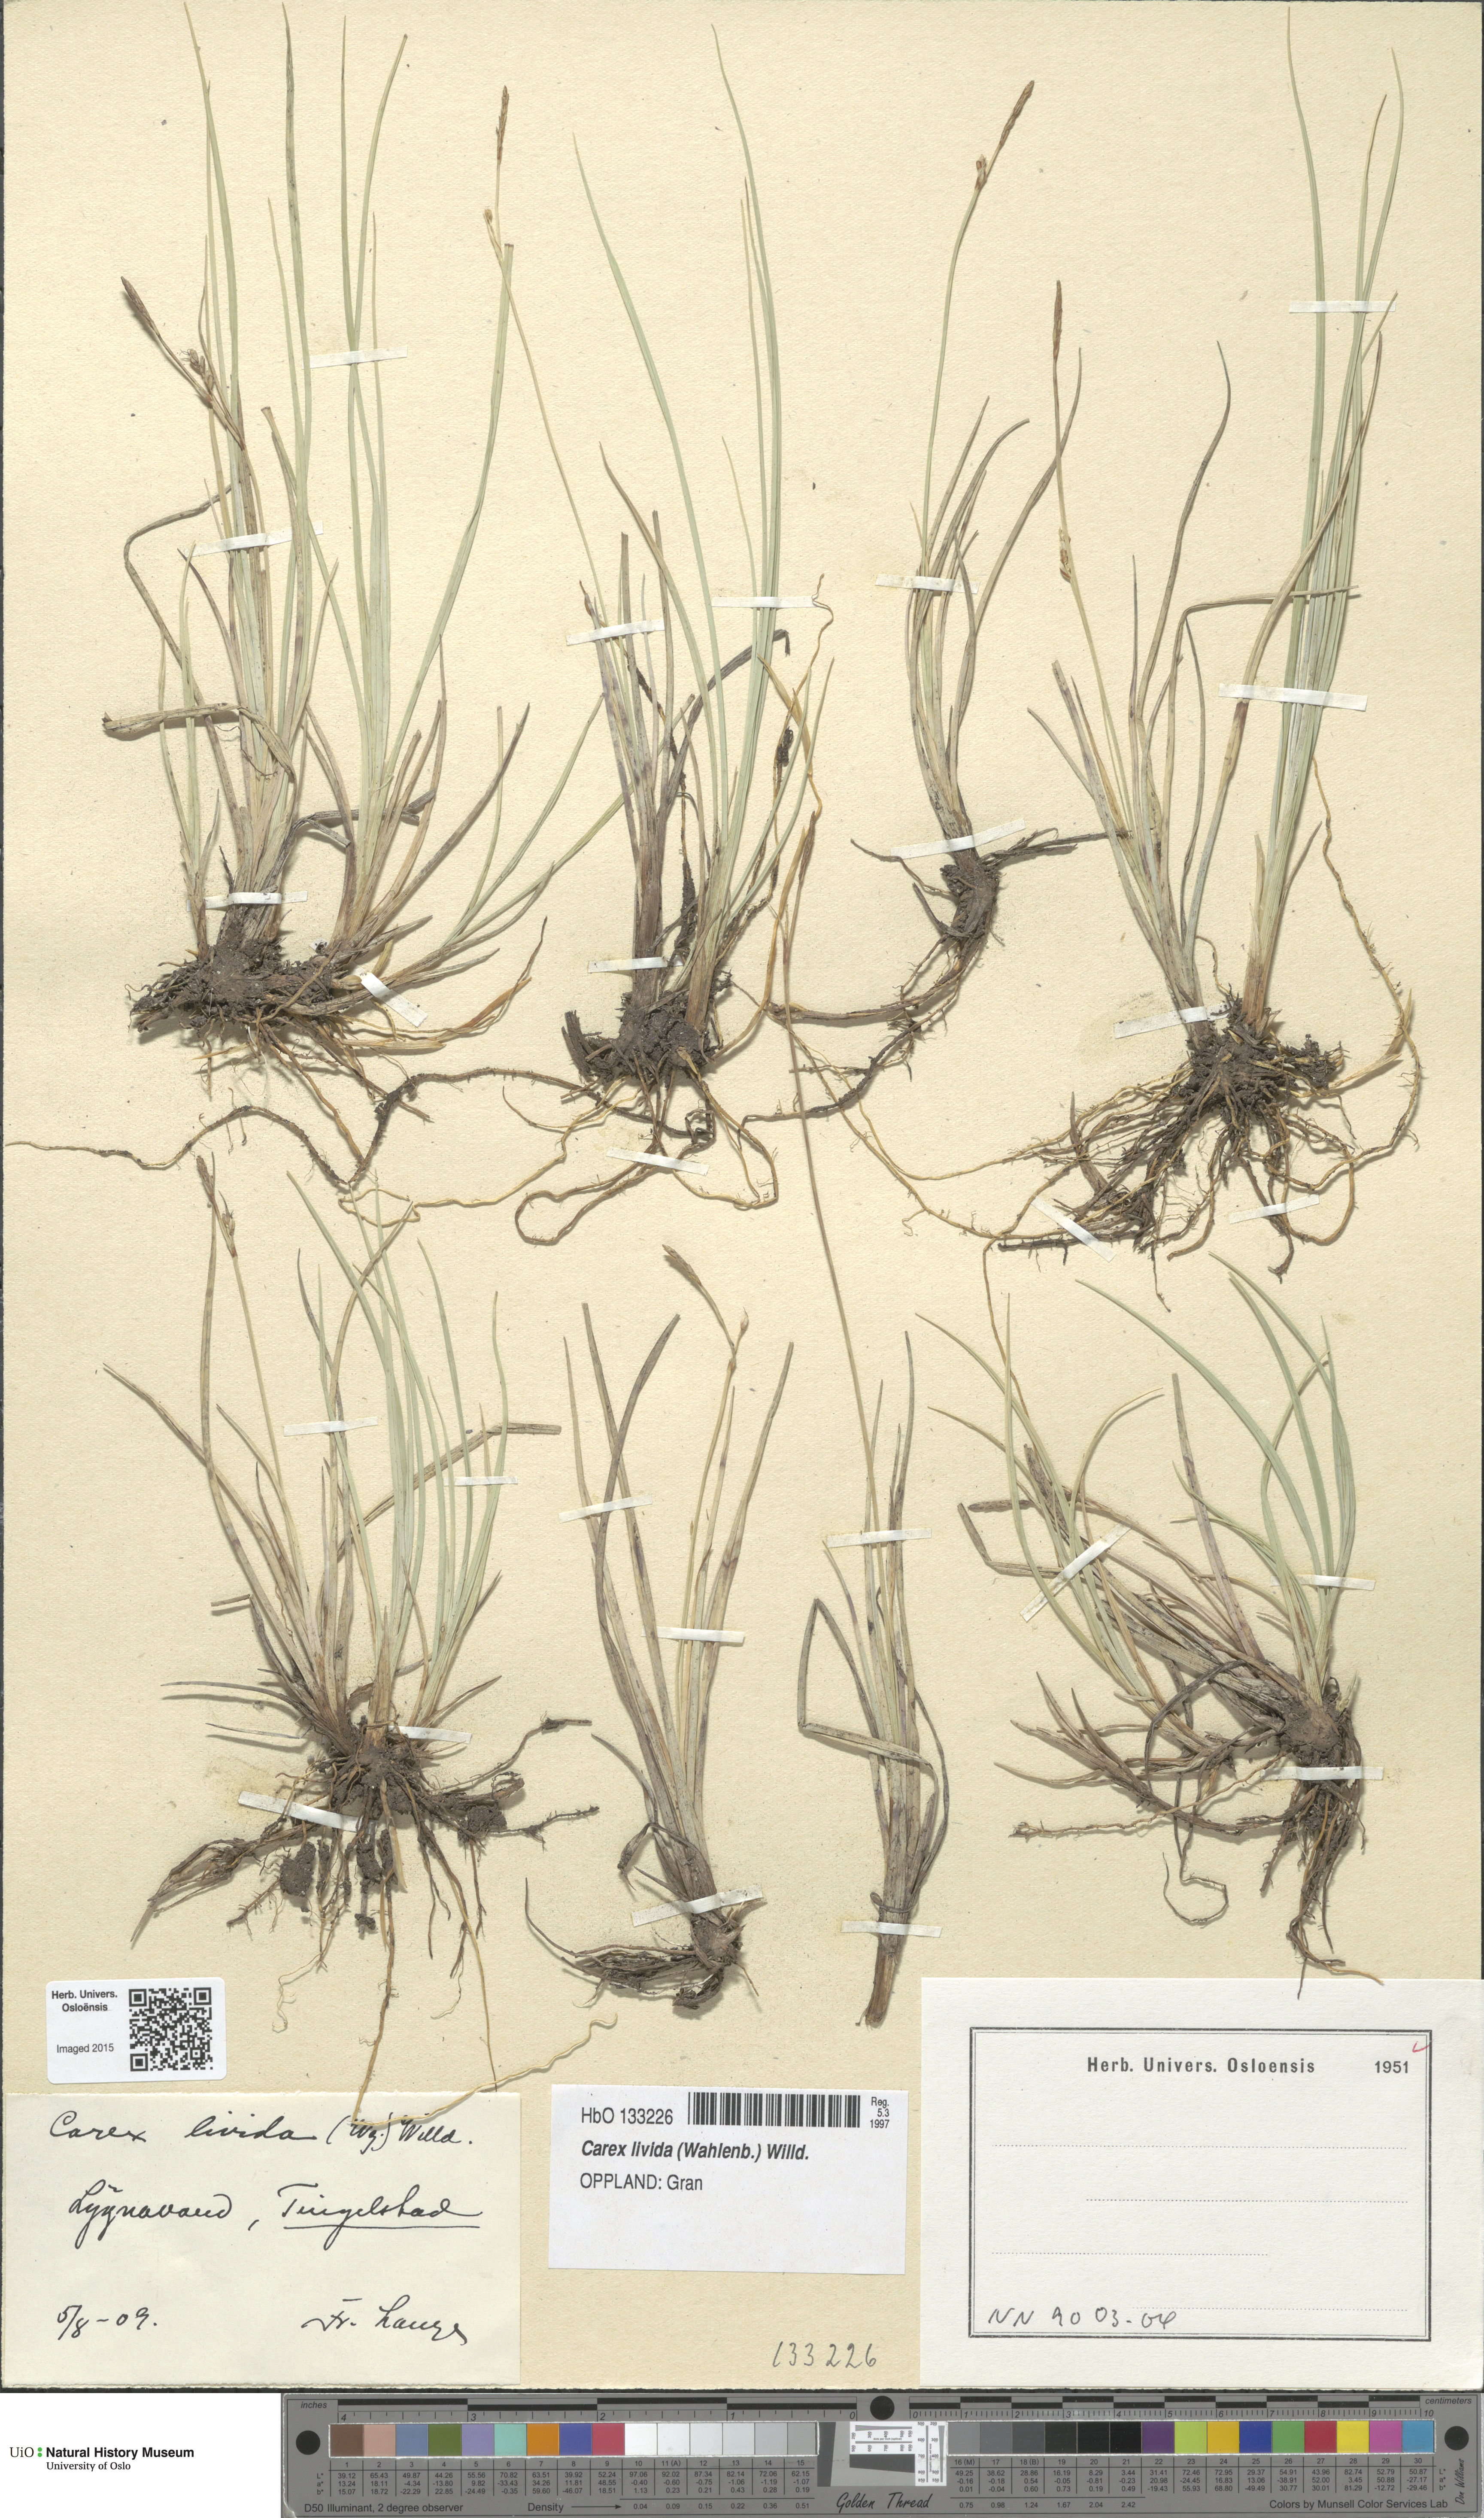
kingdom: Plantae
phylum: Tracheophyta
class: Liliopsida
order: Poales
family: Cyperaceae
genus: Carex
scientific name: Carex livida
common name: Livid sedge
